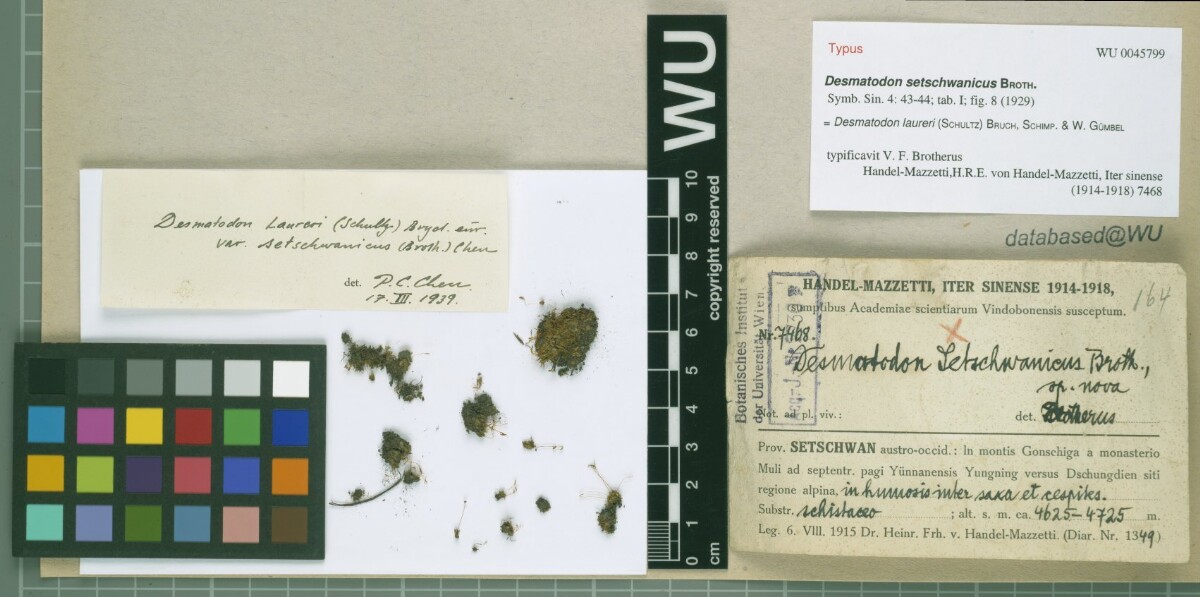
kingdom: Plantae
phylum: Bryophyta
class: Bryopsida
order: Pottiales
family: Pottiaceae
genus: Tortula
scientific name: Tortula laureri
